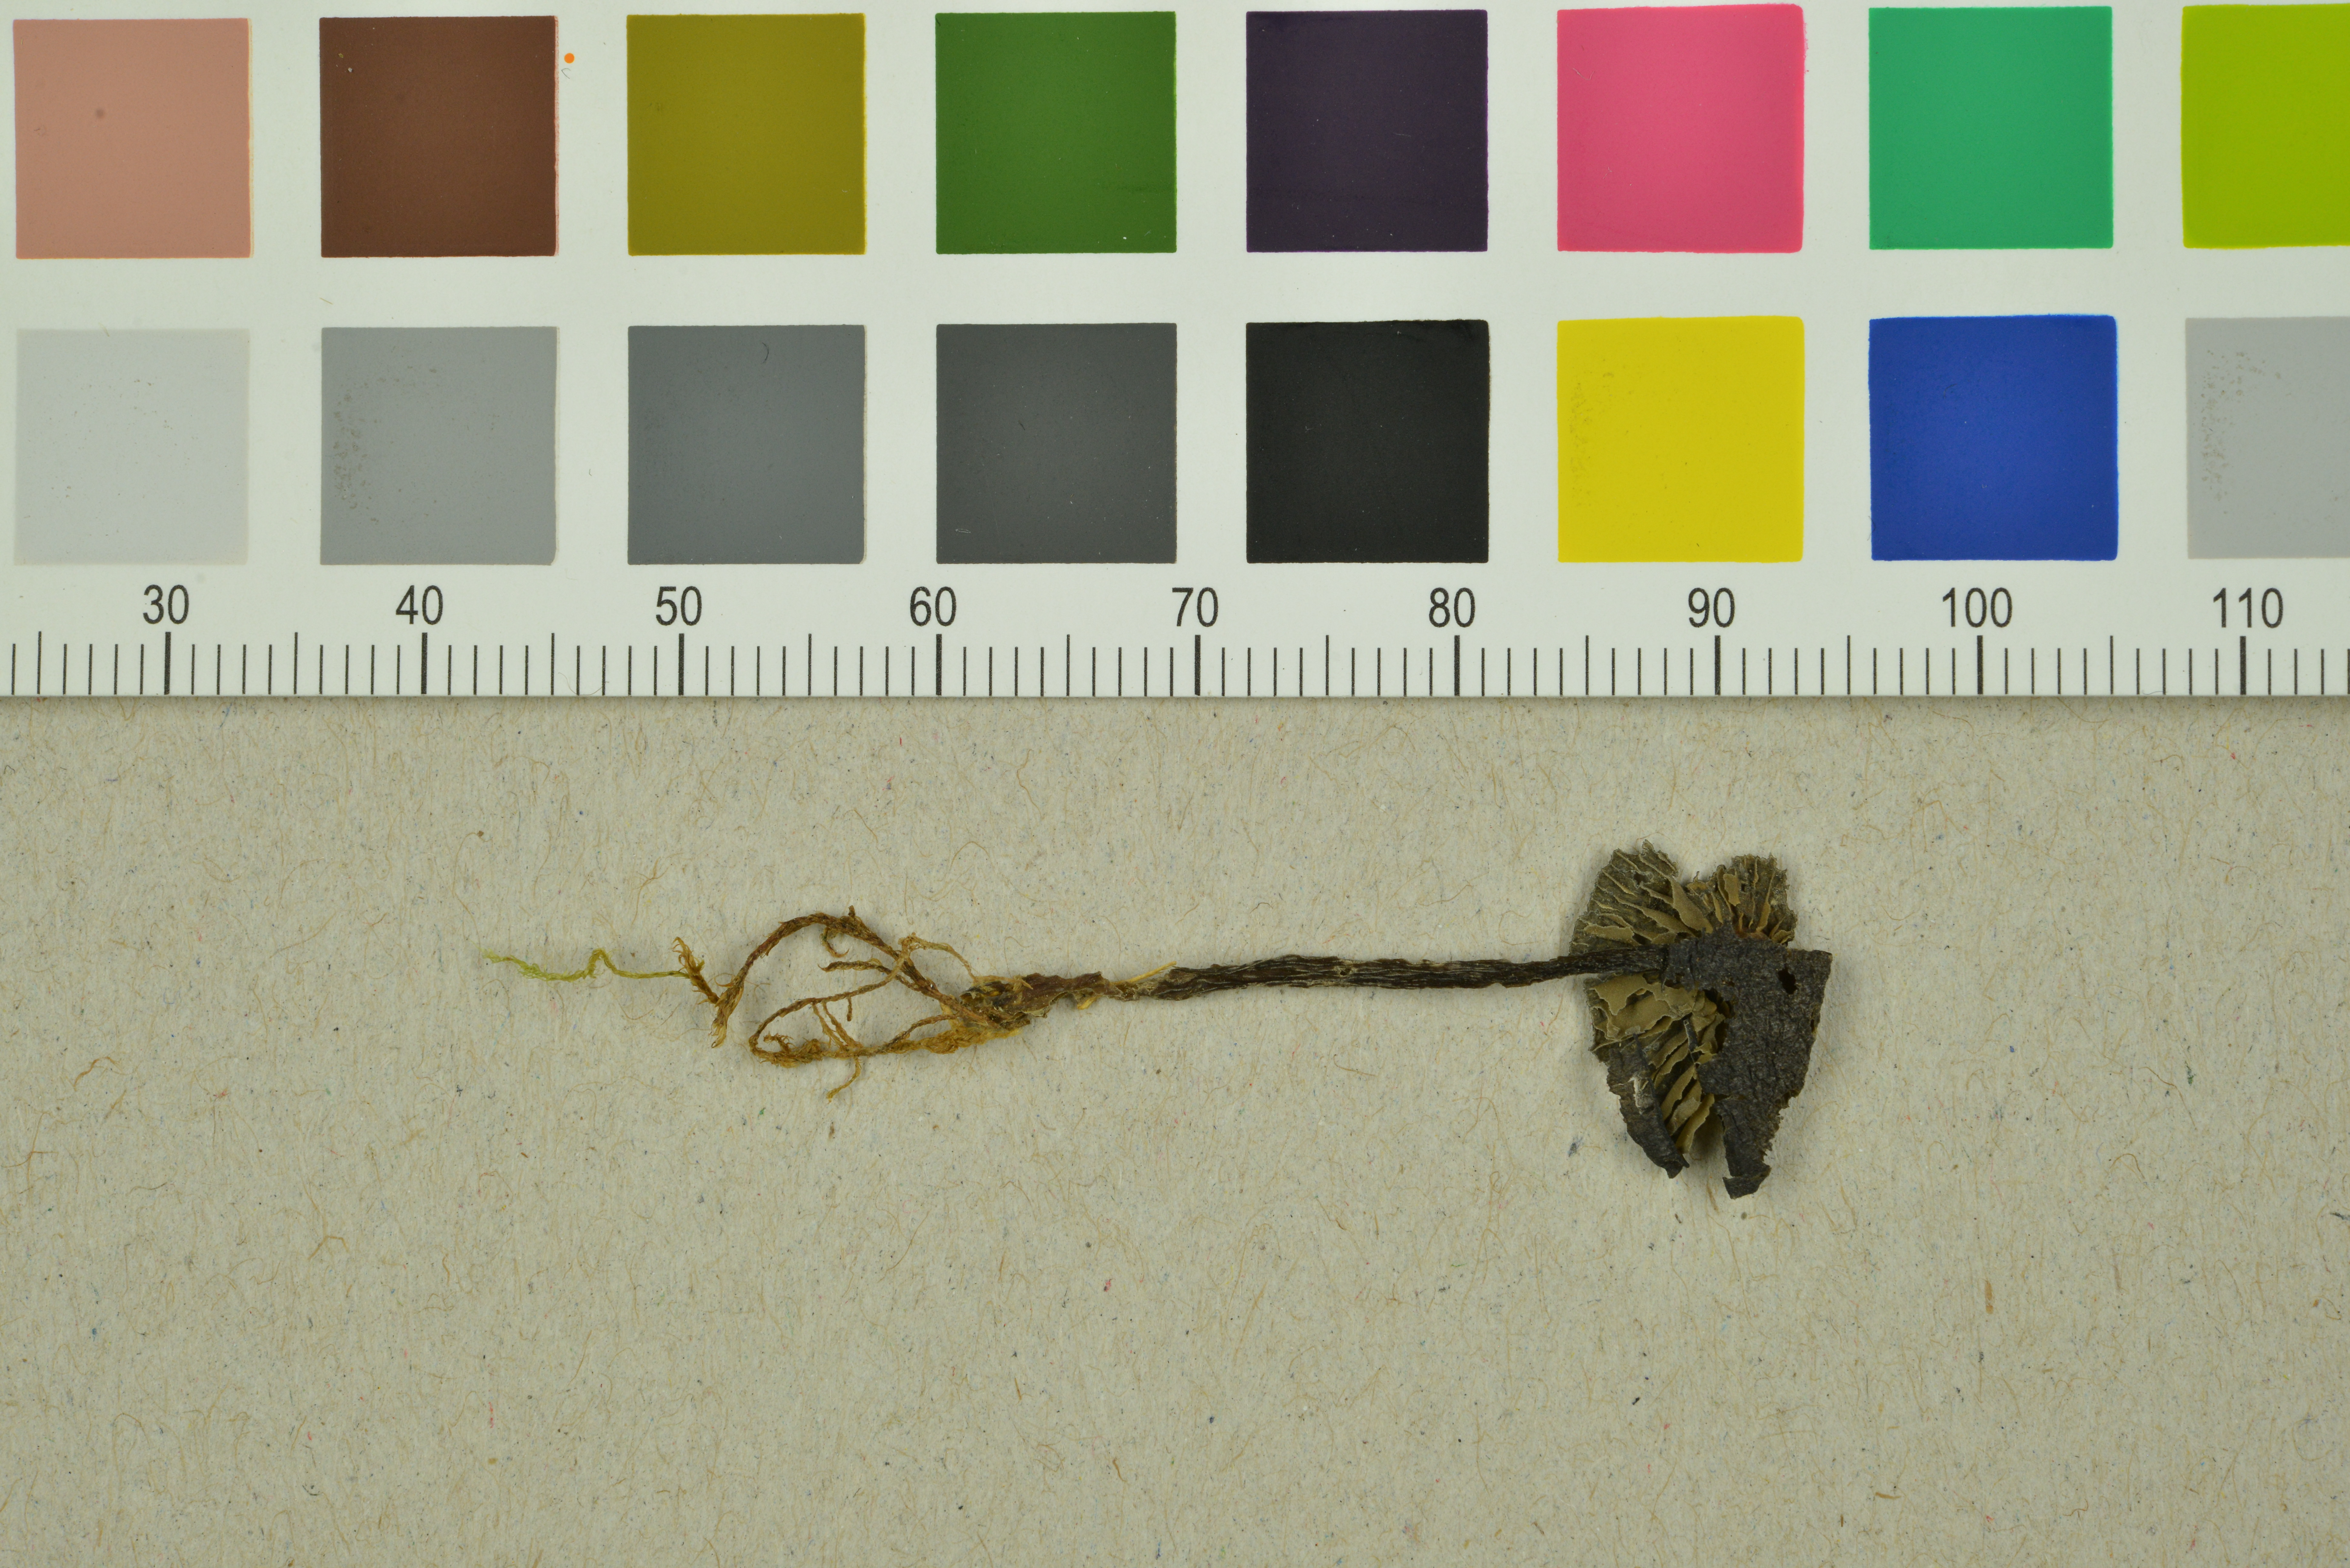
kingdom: Fungi
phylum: Basidiomycota
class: Agaricomycetes
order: Agaricales
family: Entolomataceae
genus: Entoloma
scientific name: Entoloma caeruleum
